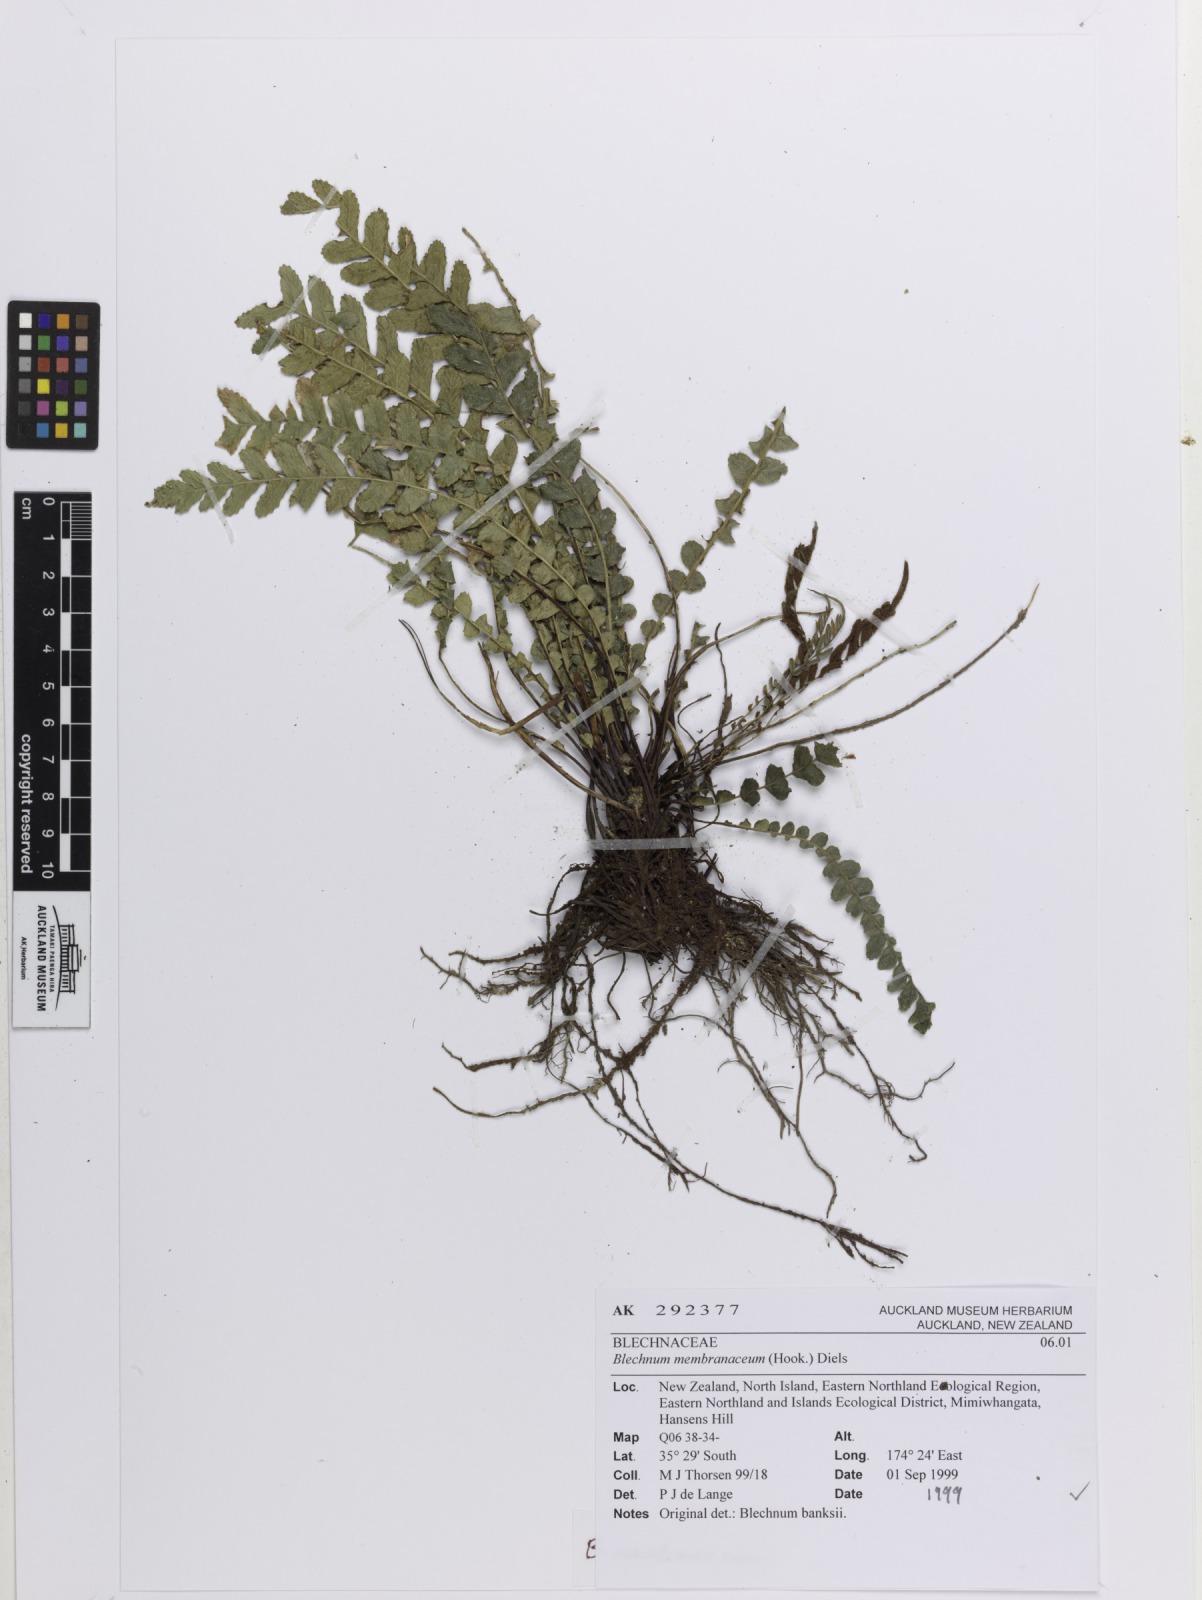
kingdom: Plantae
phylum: Tracheophyta
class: Polypodiopsida
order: Polypodiales
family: Blechnaceae
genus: Austroblechnum
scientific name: Austroblechnum membranaceum
